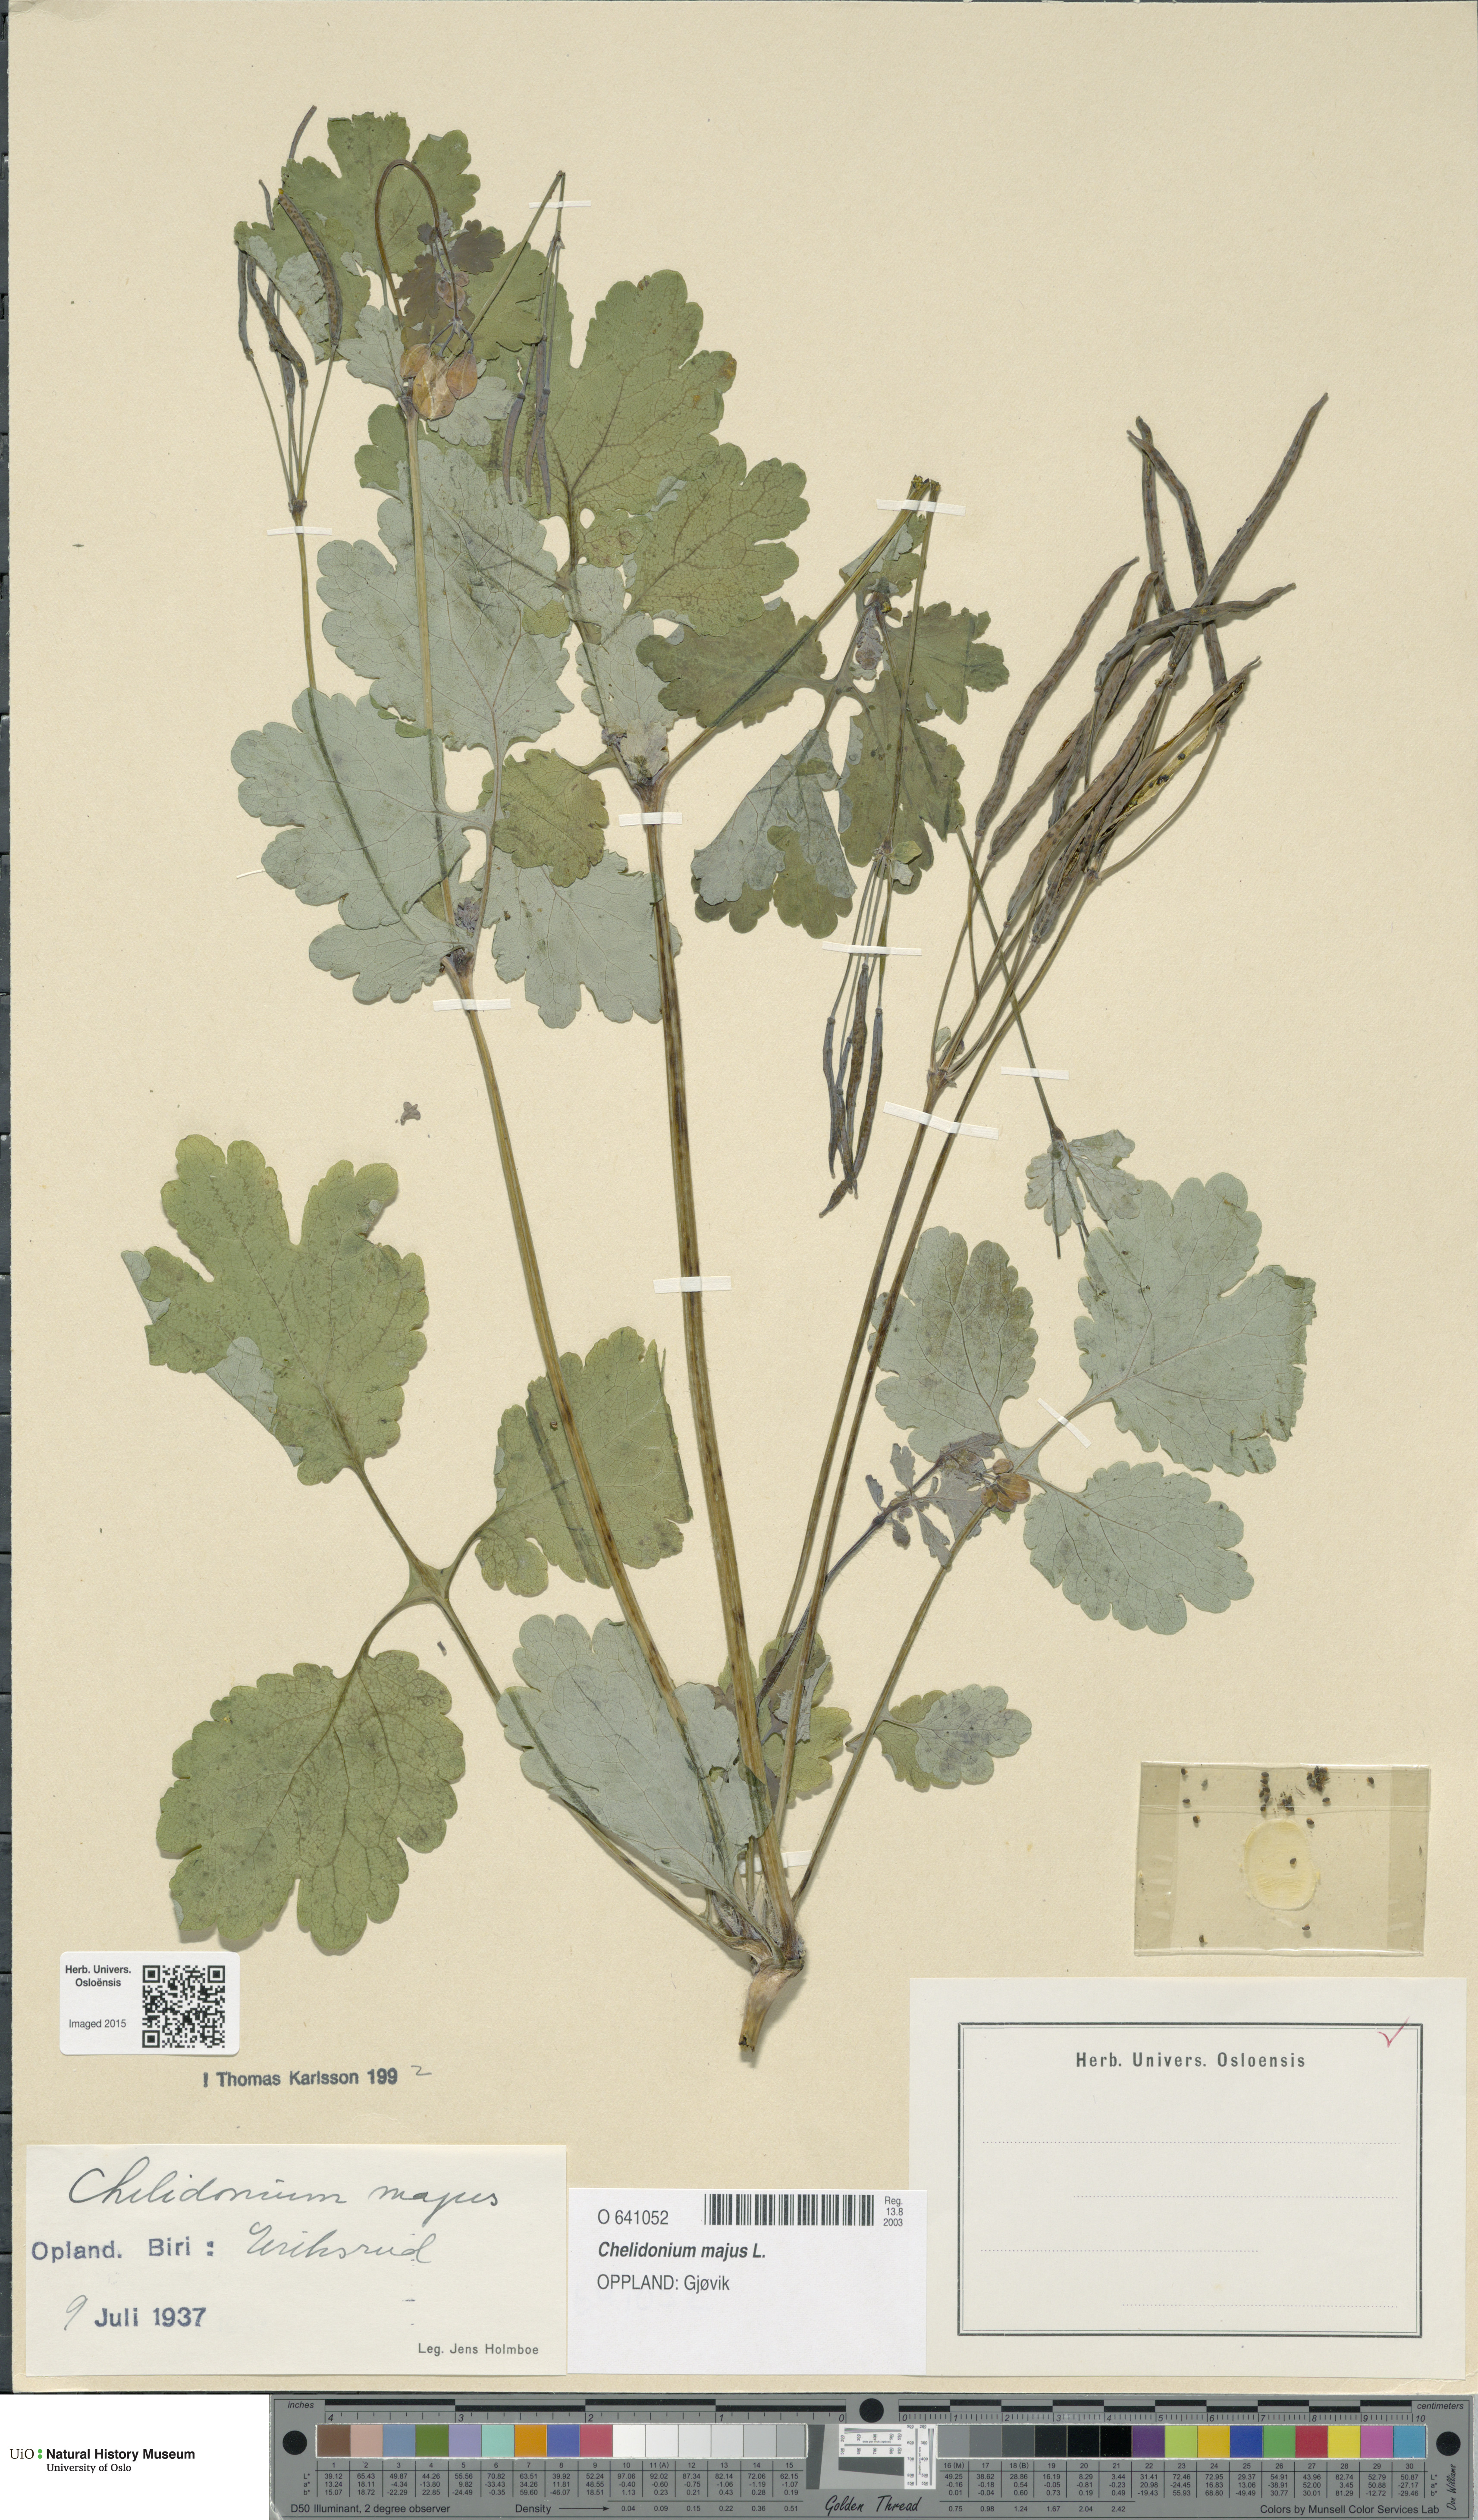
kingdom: Plantae
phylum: Tracheophyta
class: Magnoliopsida
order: Ranunculales
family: Papaveraceae
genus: Chelidonium
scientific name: Chelidonium majus
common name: Greater celandine
